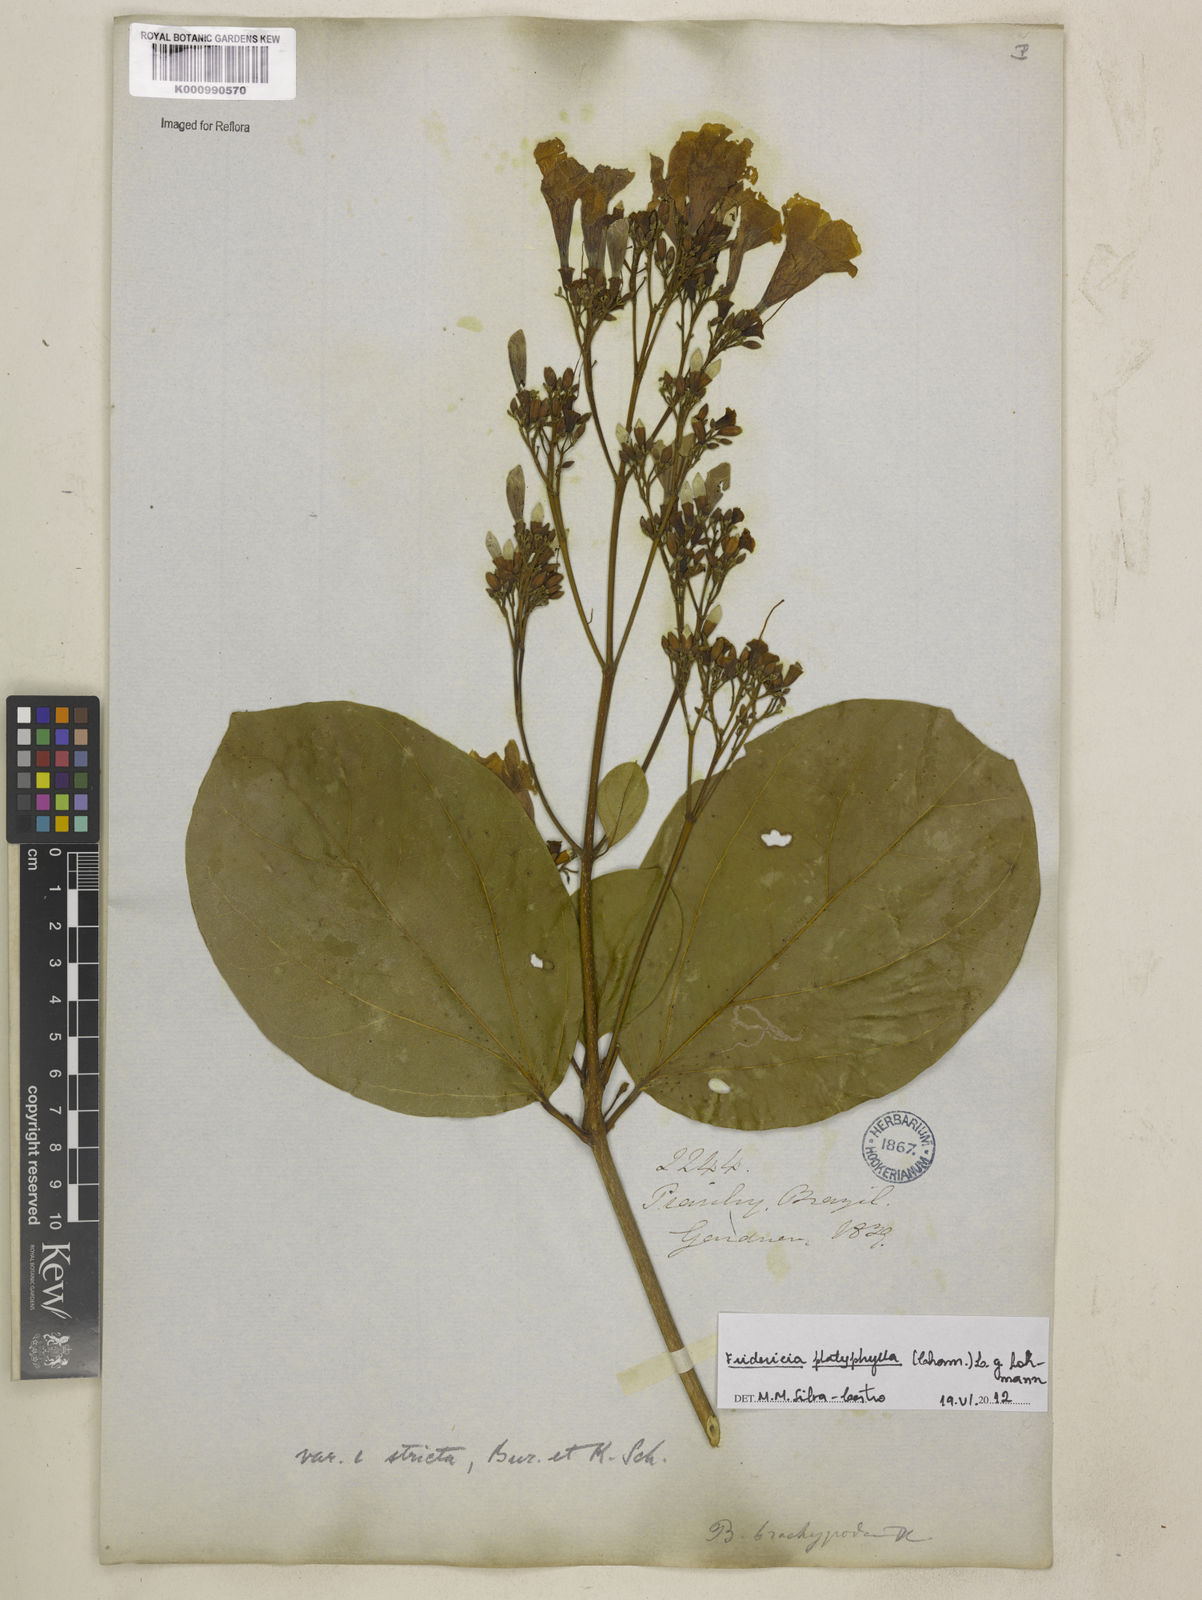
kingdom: Plantae
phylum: Tracheophyta
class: Magnoliopsida
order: Lamiales
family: Bignoniaceae
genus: Fridericia
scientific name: Fridericia platyphylla
